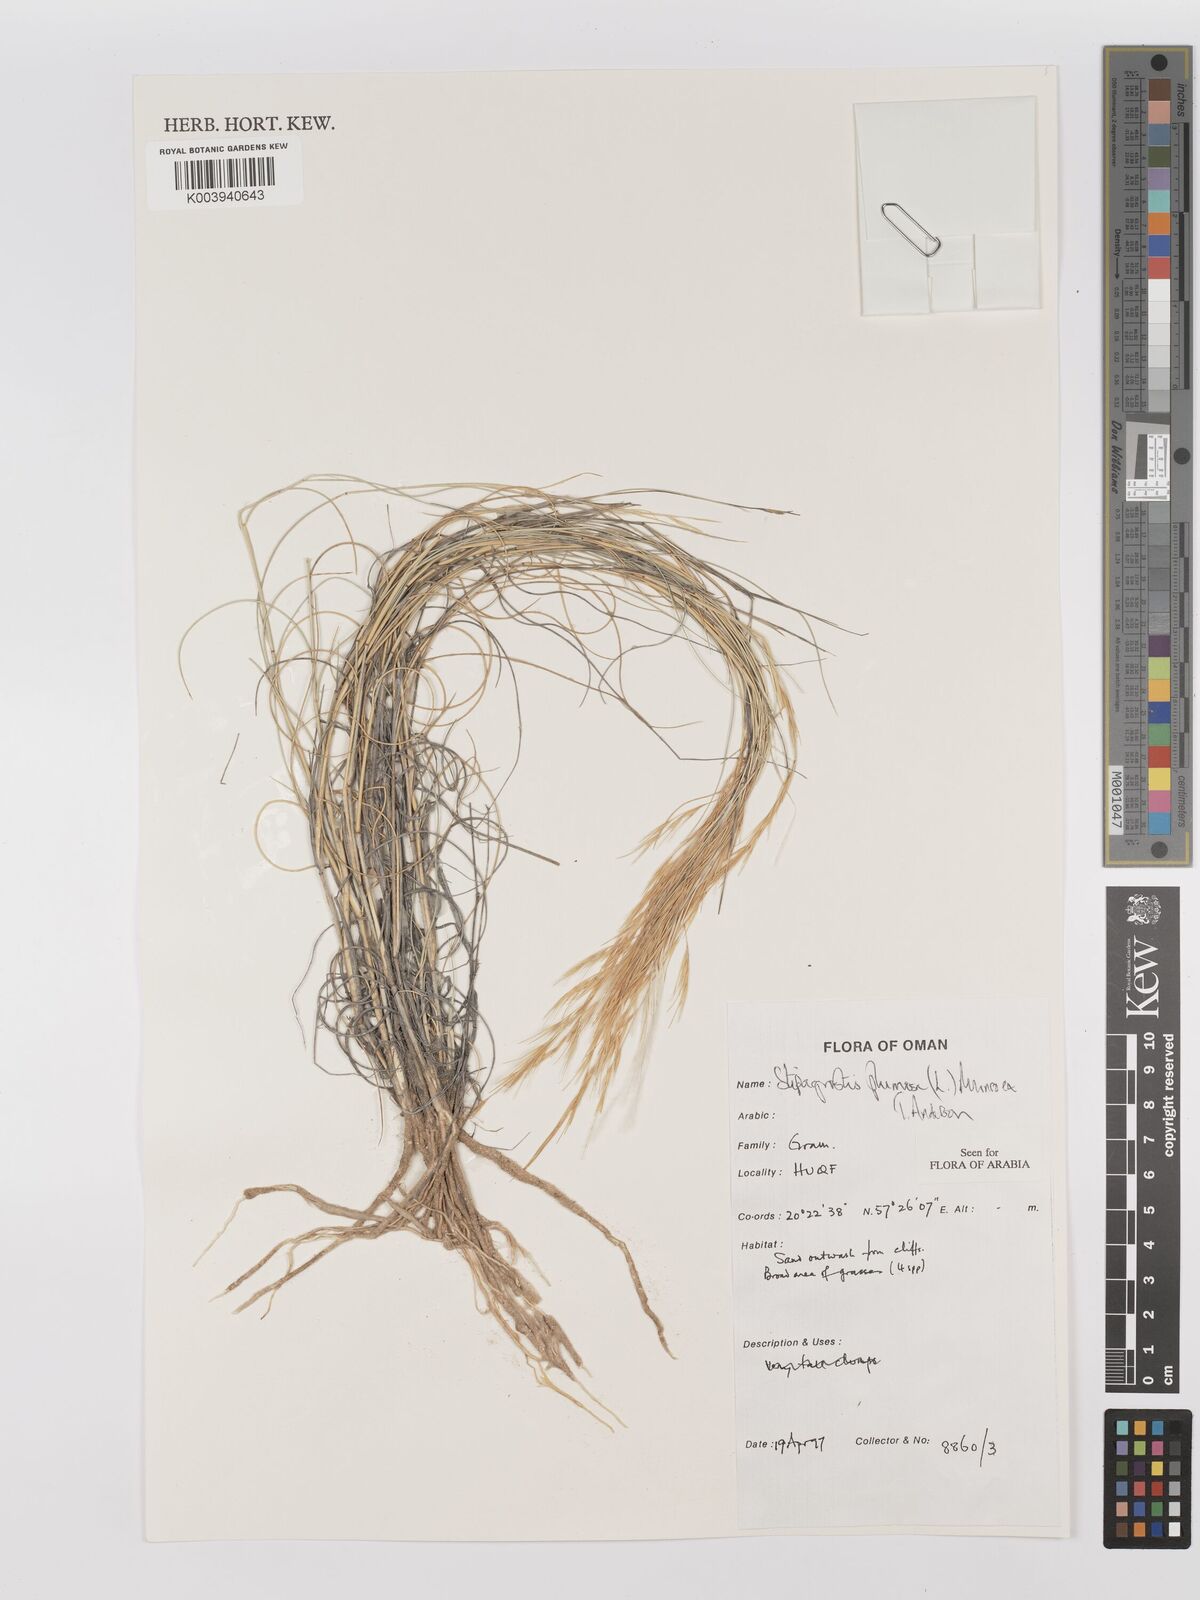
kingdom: Plantae
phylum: Tracheophyta
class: Liliopsida
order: Poales
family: Poaceae
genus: Stipagrostis
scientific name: Stipagrostis plumosa
